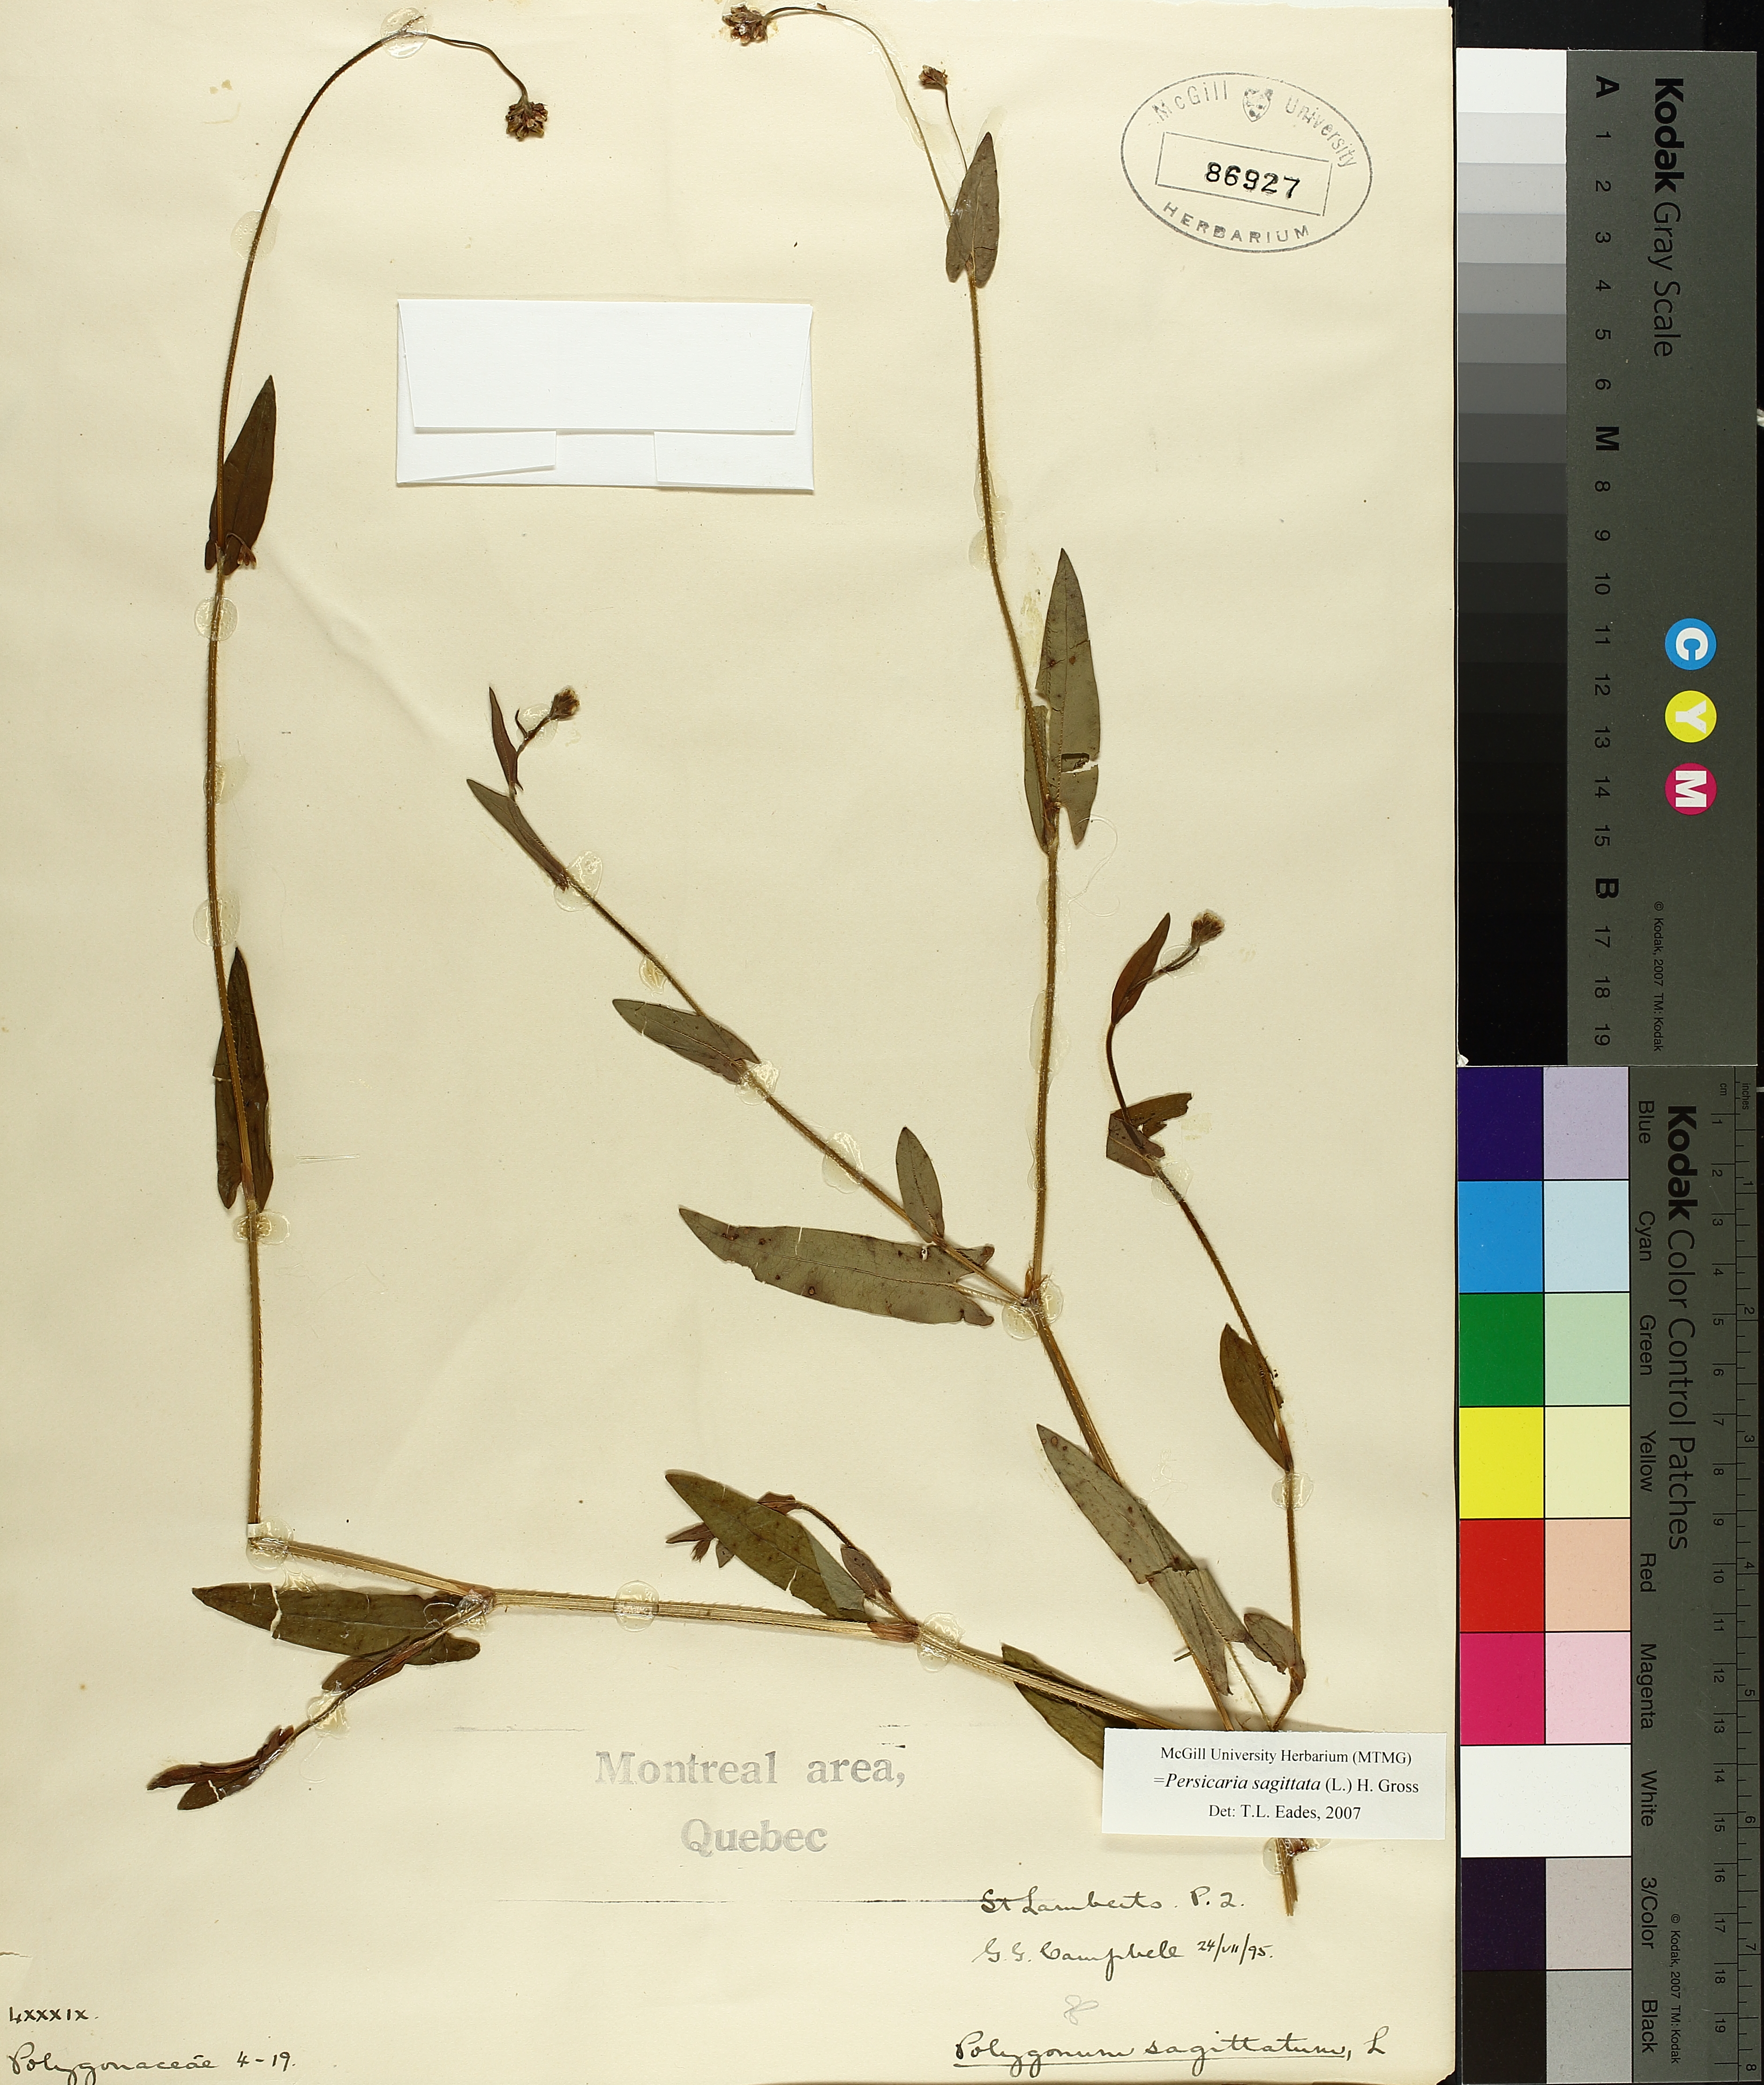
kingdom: Plantae
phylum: Tracheophyta
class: Magnoliopsida
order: Caryophyllales
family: Polygonaceae
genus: Persicaria
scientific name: Persicaria sagittata
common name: American tearthumb
